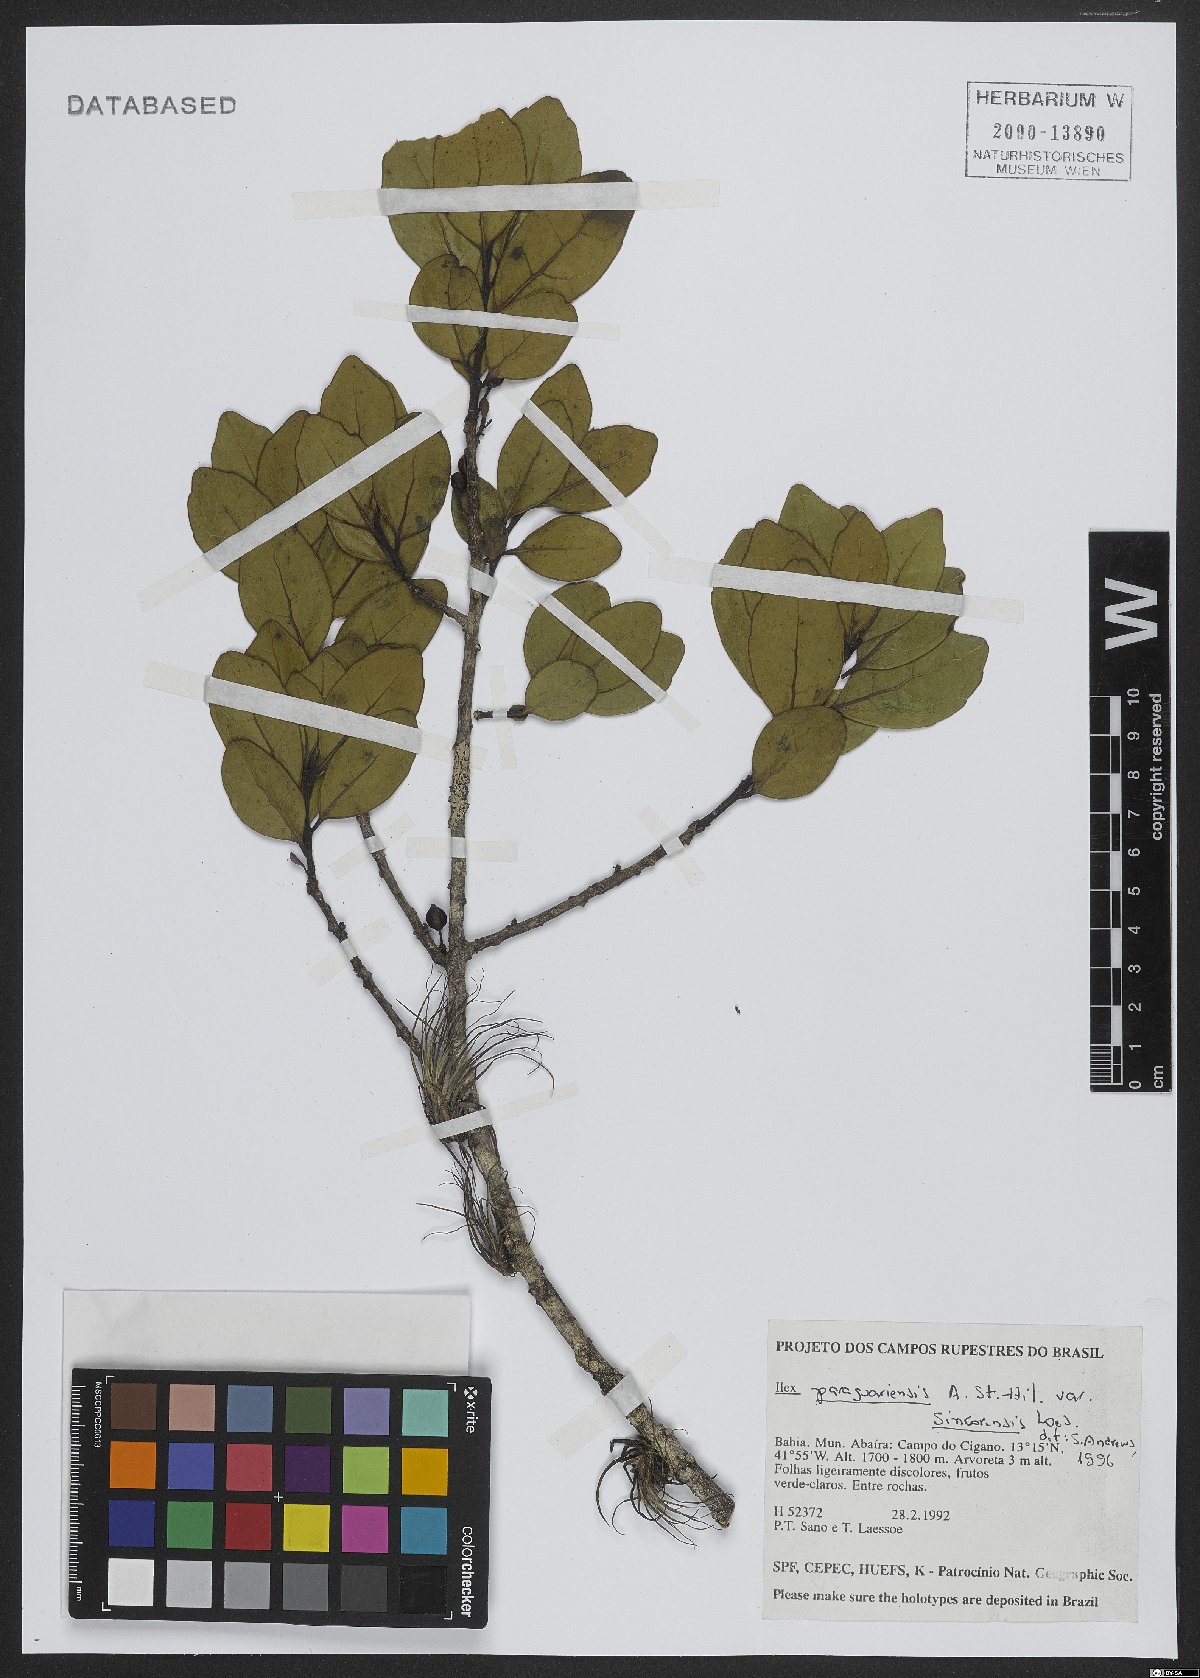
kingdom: Plantae
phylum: Tracheophyta
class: Magnoliopsida
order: Aquifoliales
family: Aquifoliaceae
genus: Ilex
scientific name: Ilex paraguariensis
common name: Paraguay tea
